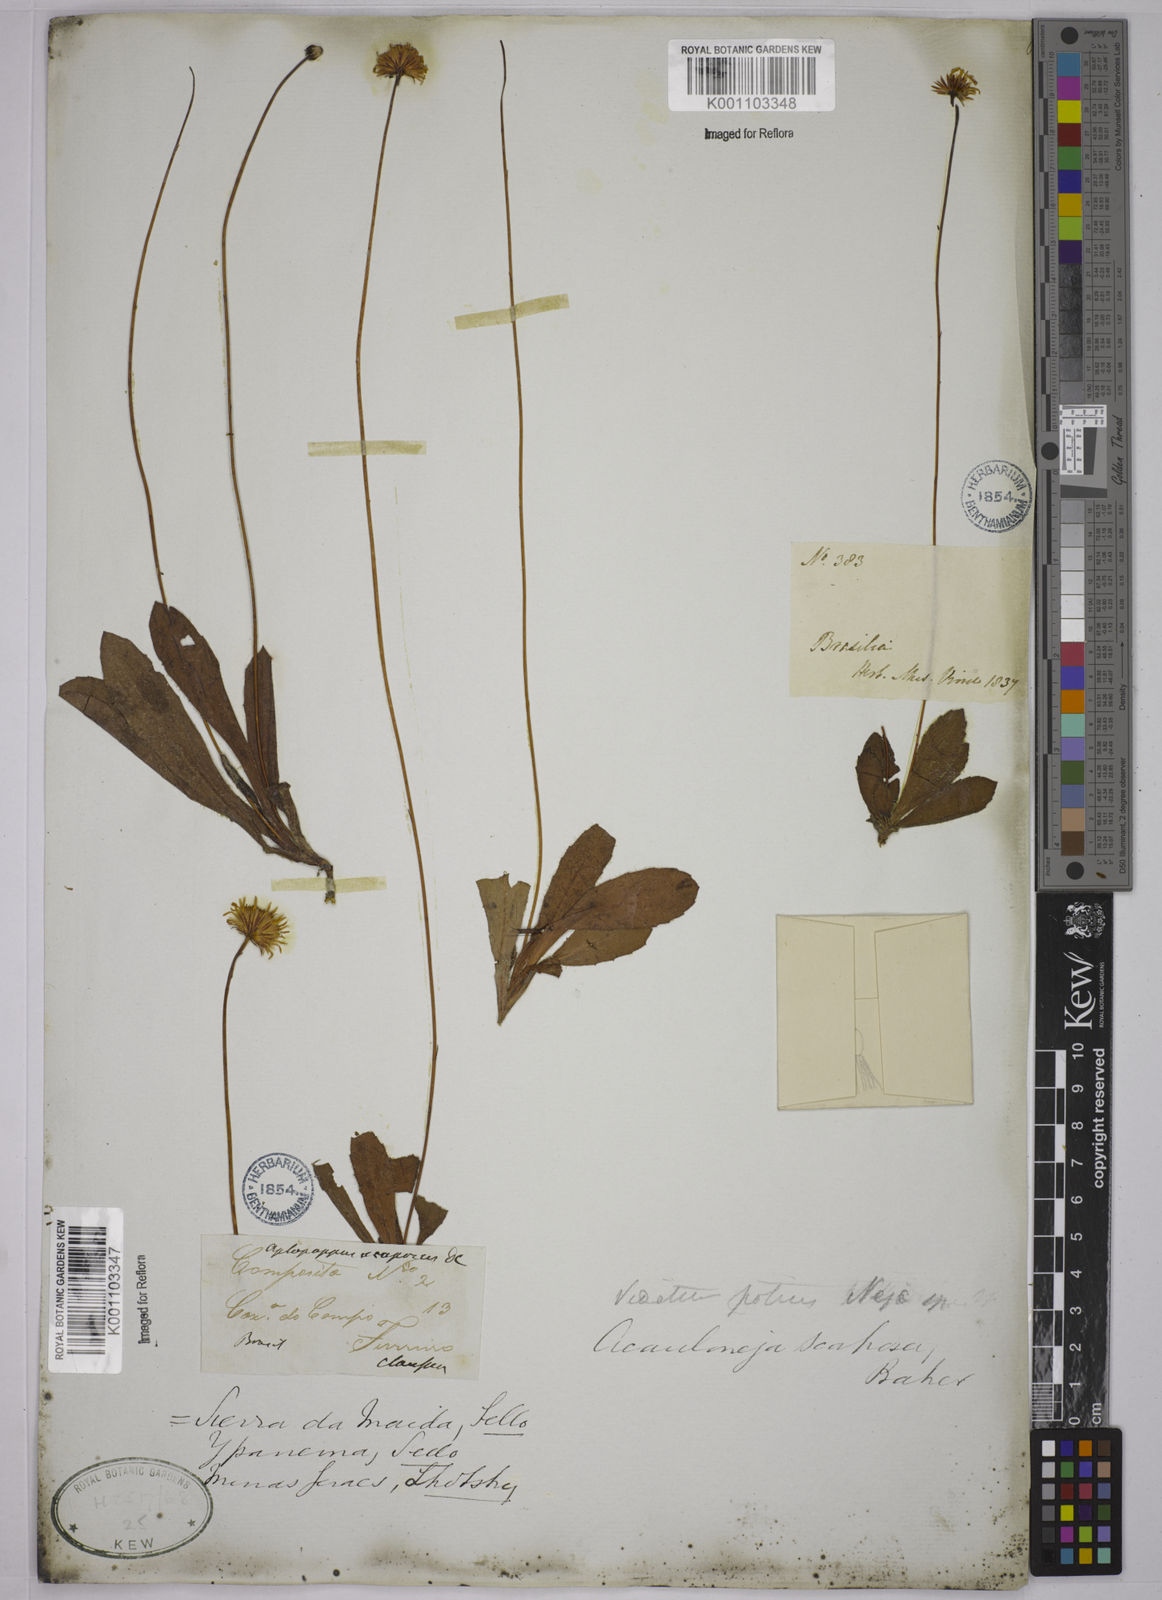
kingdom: Plantae
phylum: Tracheophyta
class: Magnoliopsida
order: Asterales
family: Asteraceae
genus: Inulopsis
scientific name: Inulopsis scaposa
